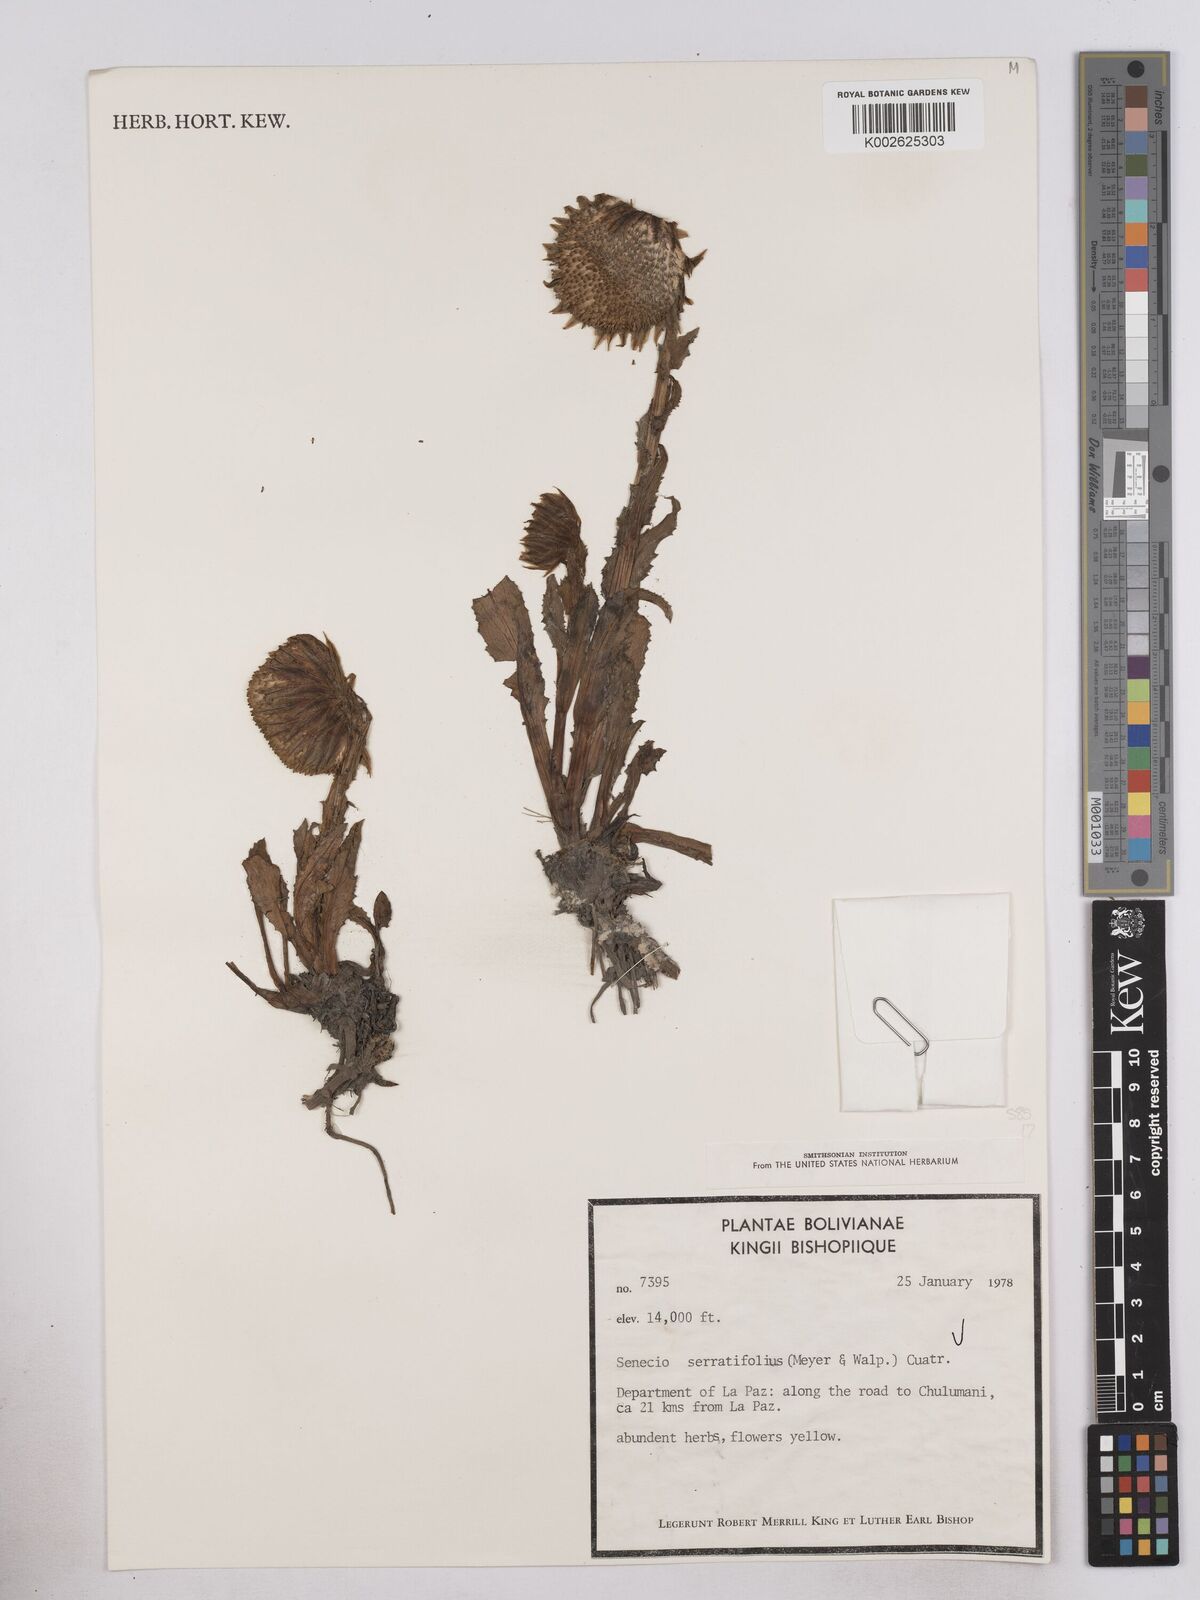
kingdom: Plantae
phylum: Tracheophyta
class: Magnoliopsida
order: Asterales
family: Asteraceae
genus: Senecio
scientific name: Senecio serratifolius
